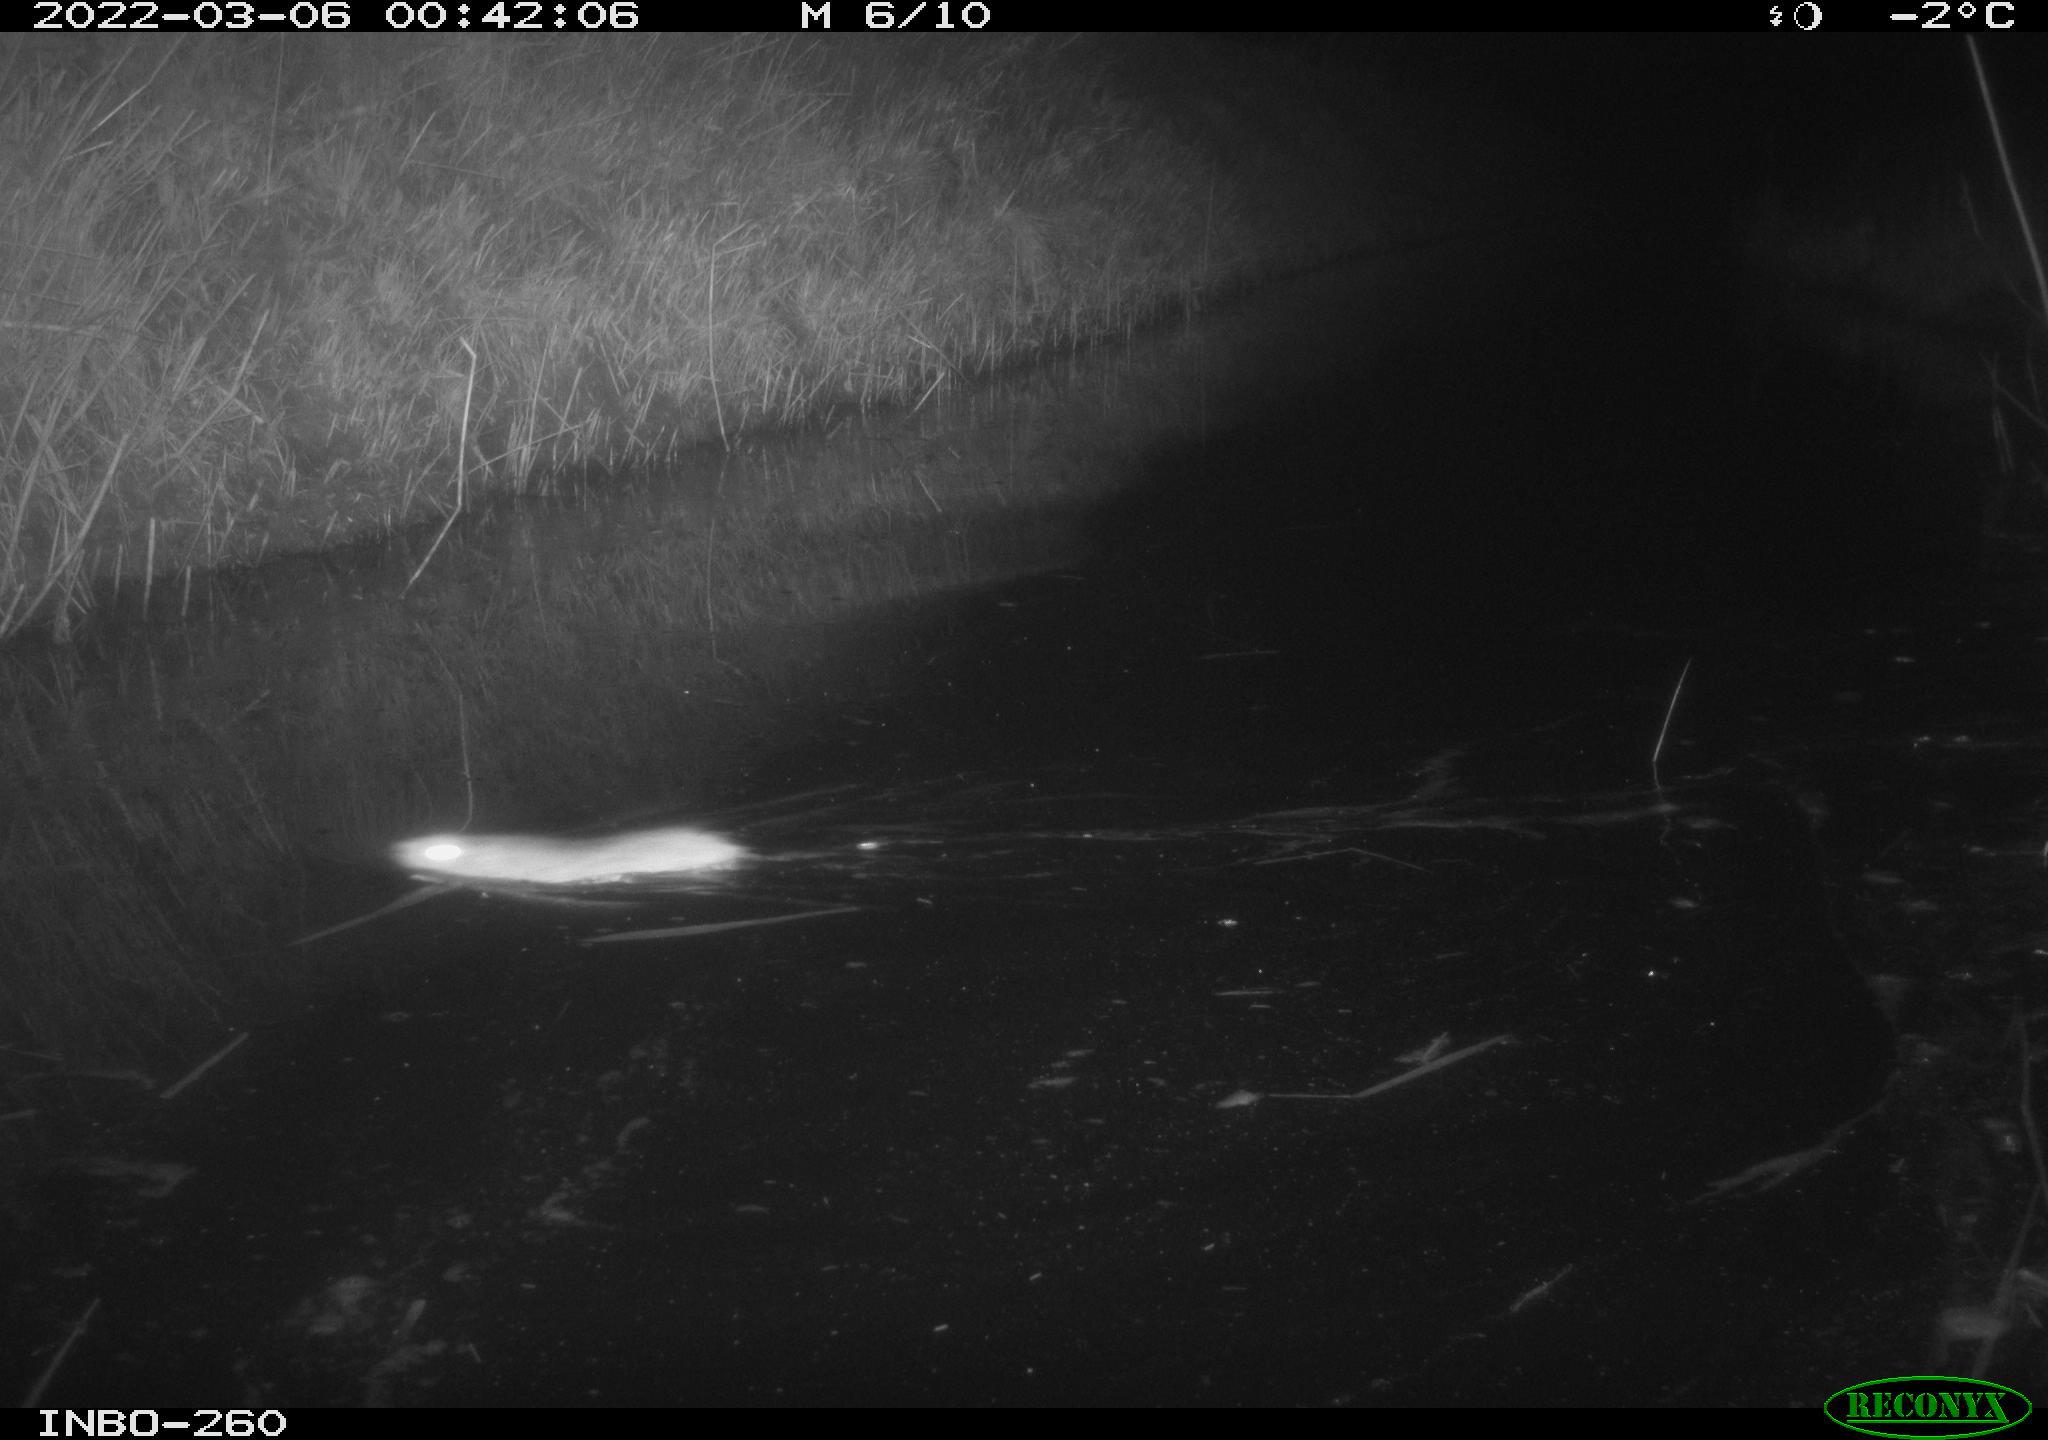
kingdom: Animalia
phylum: Chordata
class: Mammalia
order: Rodentia
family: Muridae
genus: Rattus
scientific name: Rattus norvegicus
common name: Brown rat
